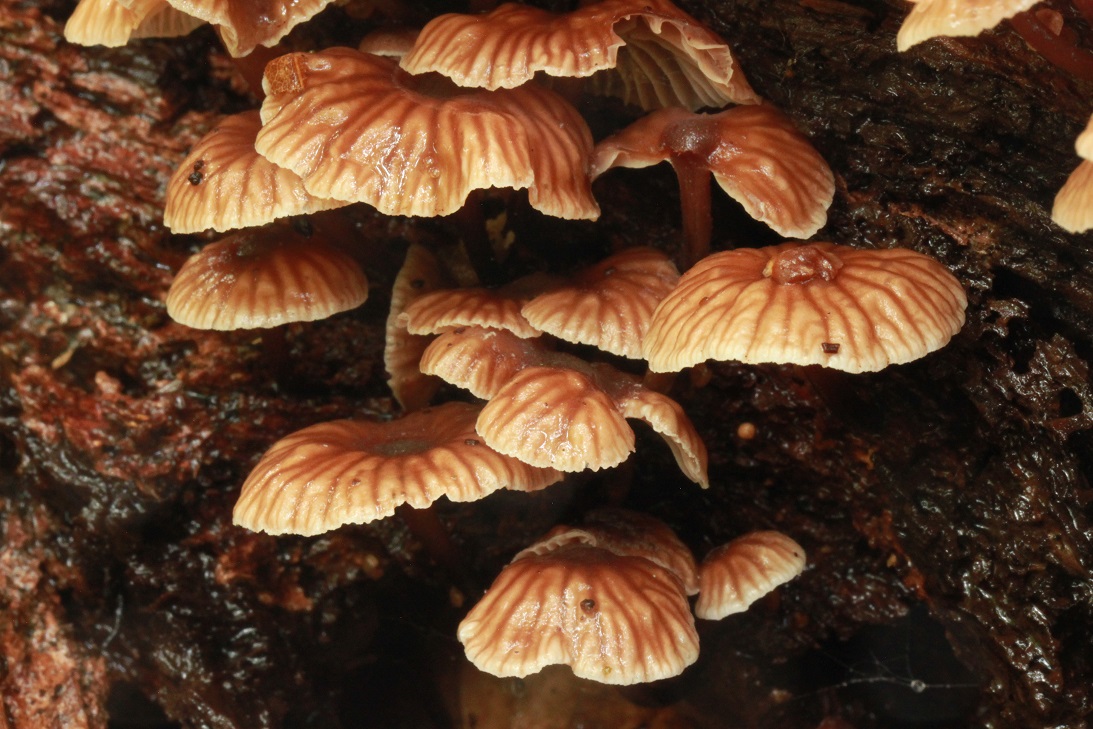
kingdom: Fungi
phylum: Basidiomycota
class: Agaricomycetes
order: Agaricales
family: Omphalotaceae
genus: Gymnopus
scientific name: Gymnopus foetidus
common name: stinkende fladhat
